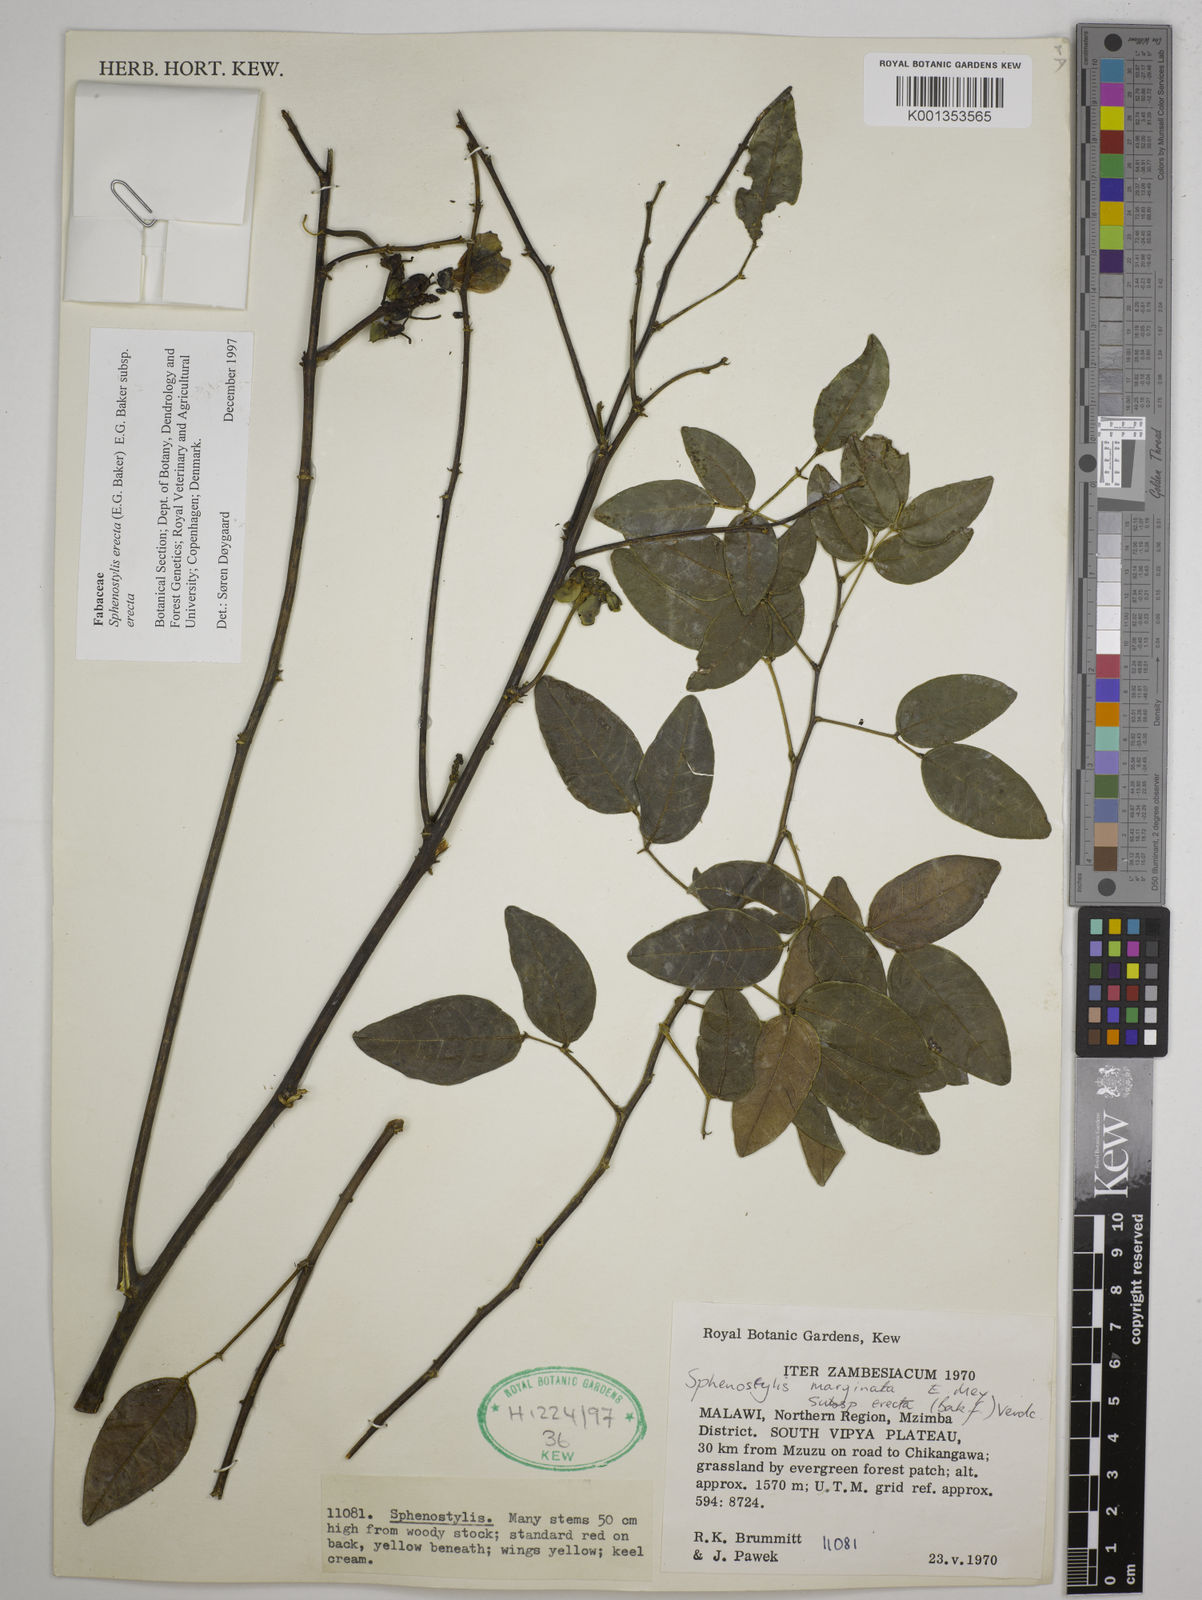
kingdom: Plantae
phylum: Tracheophyta
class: Magnoliopsida
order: Fabales
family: Fabaceae
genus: Sphenostylis
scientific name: Sphenostylis erecta
